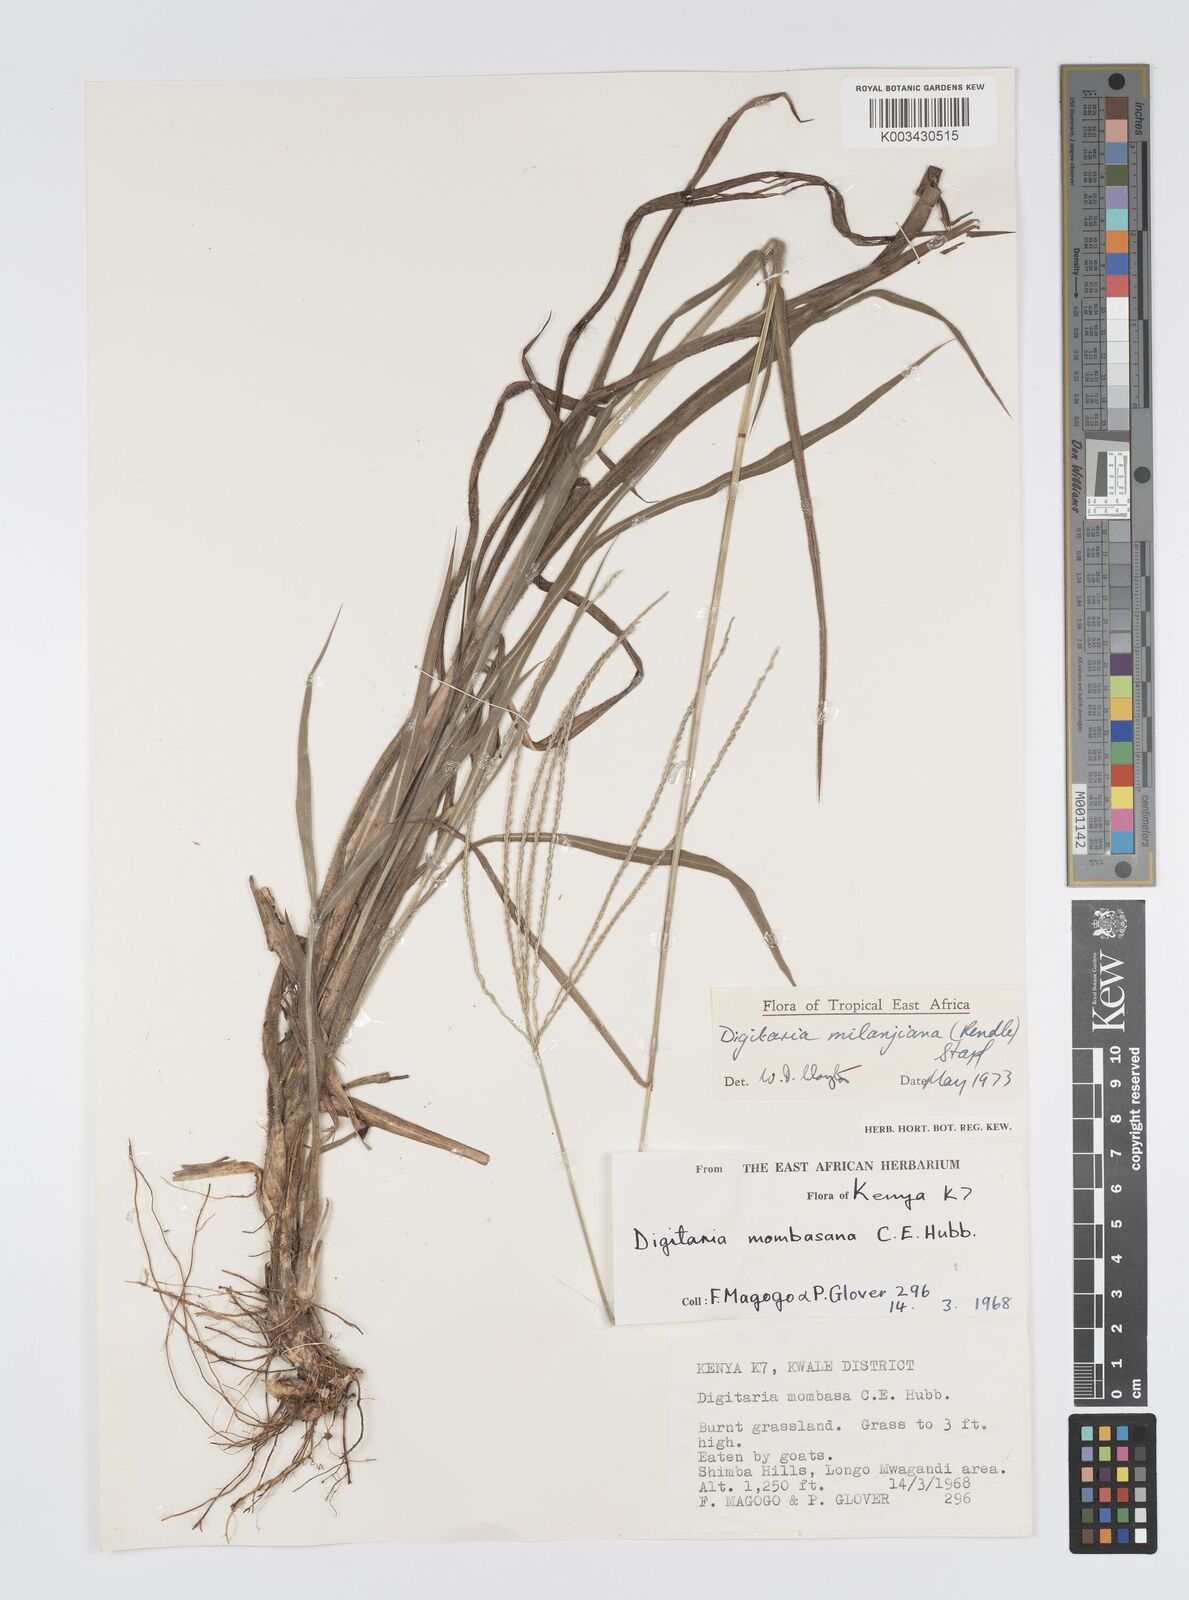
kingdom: Plantae
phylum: Tracheophyta
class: Liliopsida
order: Poales
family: Poaceae
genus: Digitaria
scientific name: Digitaria milanjiana
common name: Madagascar crabgrass
